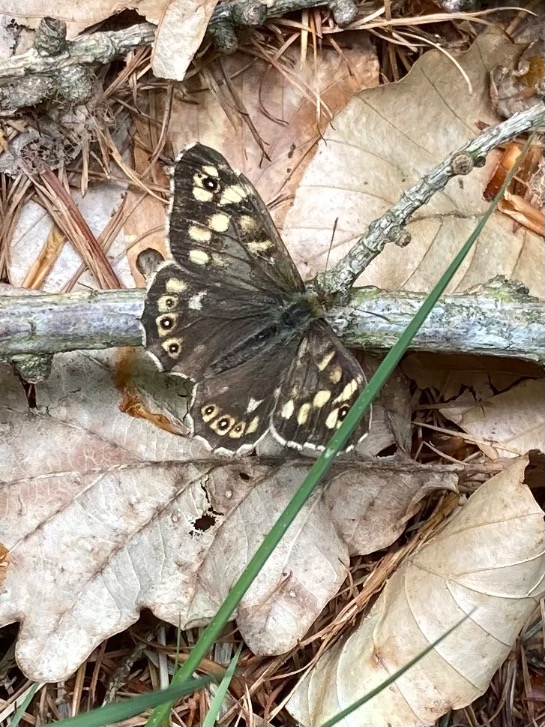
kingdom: Animalia
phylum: Arthropoda
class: Insecta
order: Lepidoptera
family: Nymphalidae
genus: Pararge
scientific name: Pararge aegeria
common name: Skovrandøje
